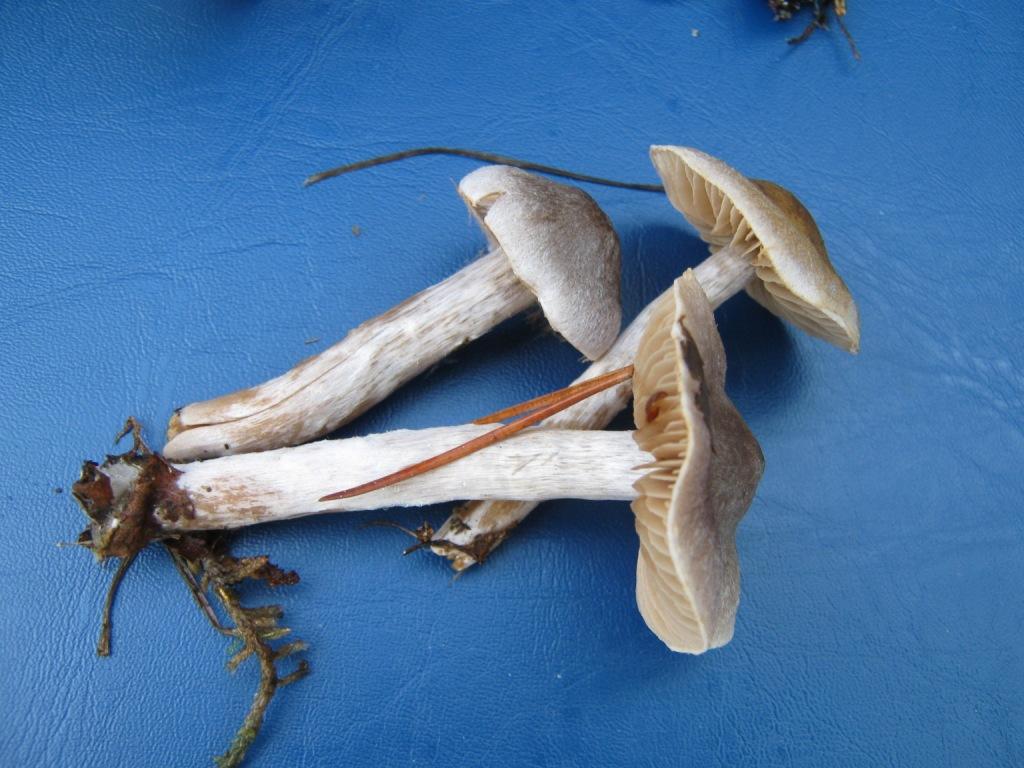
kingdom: Fungi
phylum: Basidiomycota
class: Agaricomycetes
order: Agaricales
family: Cortinariaceae
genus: Cortinarius
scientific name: Cortinarius hemitrichus
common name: hvidfnugget slørhat
